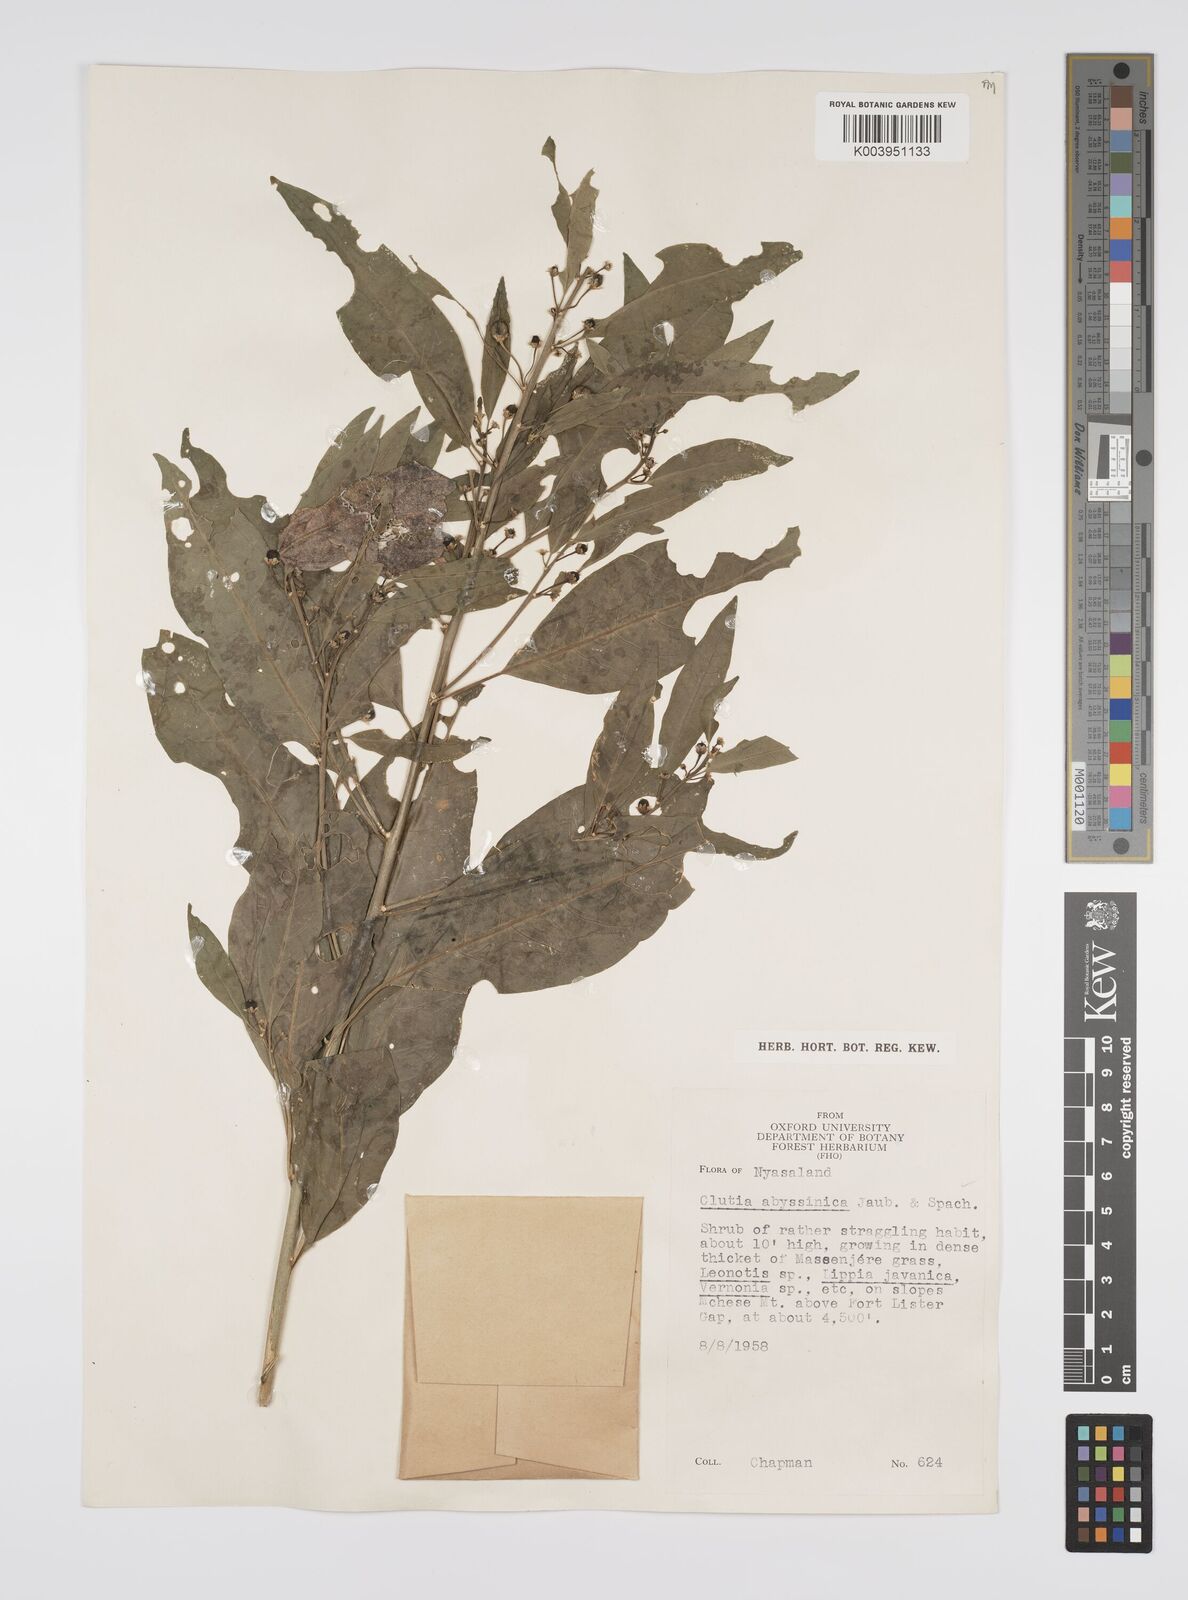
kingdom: Plantae
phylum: Tracheophyta
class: Magnoliopsida
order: Malpighiales
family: Peraceae
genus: Clutia
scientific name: Clutia abyssinica
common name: Large lightning bush
